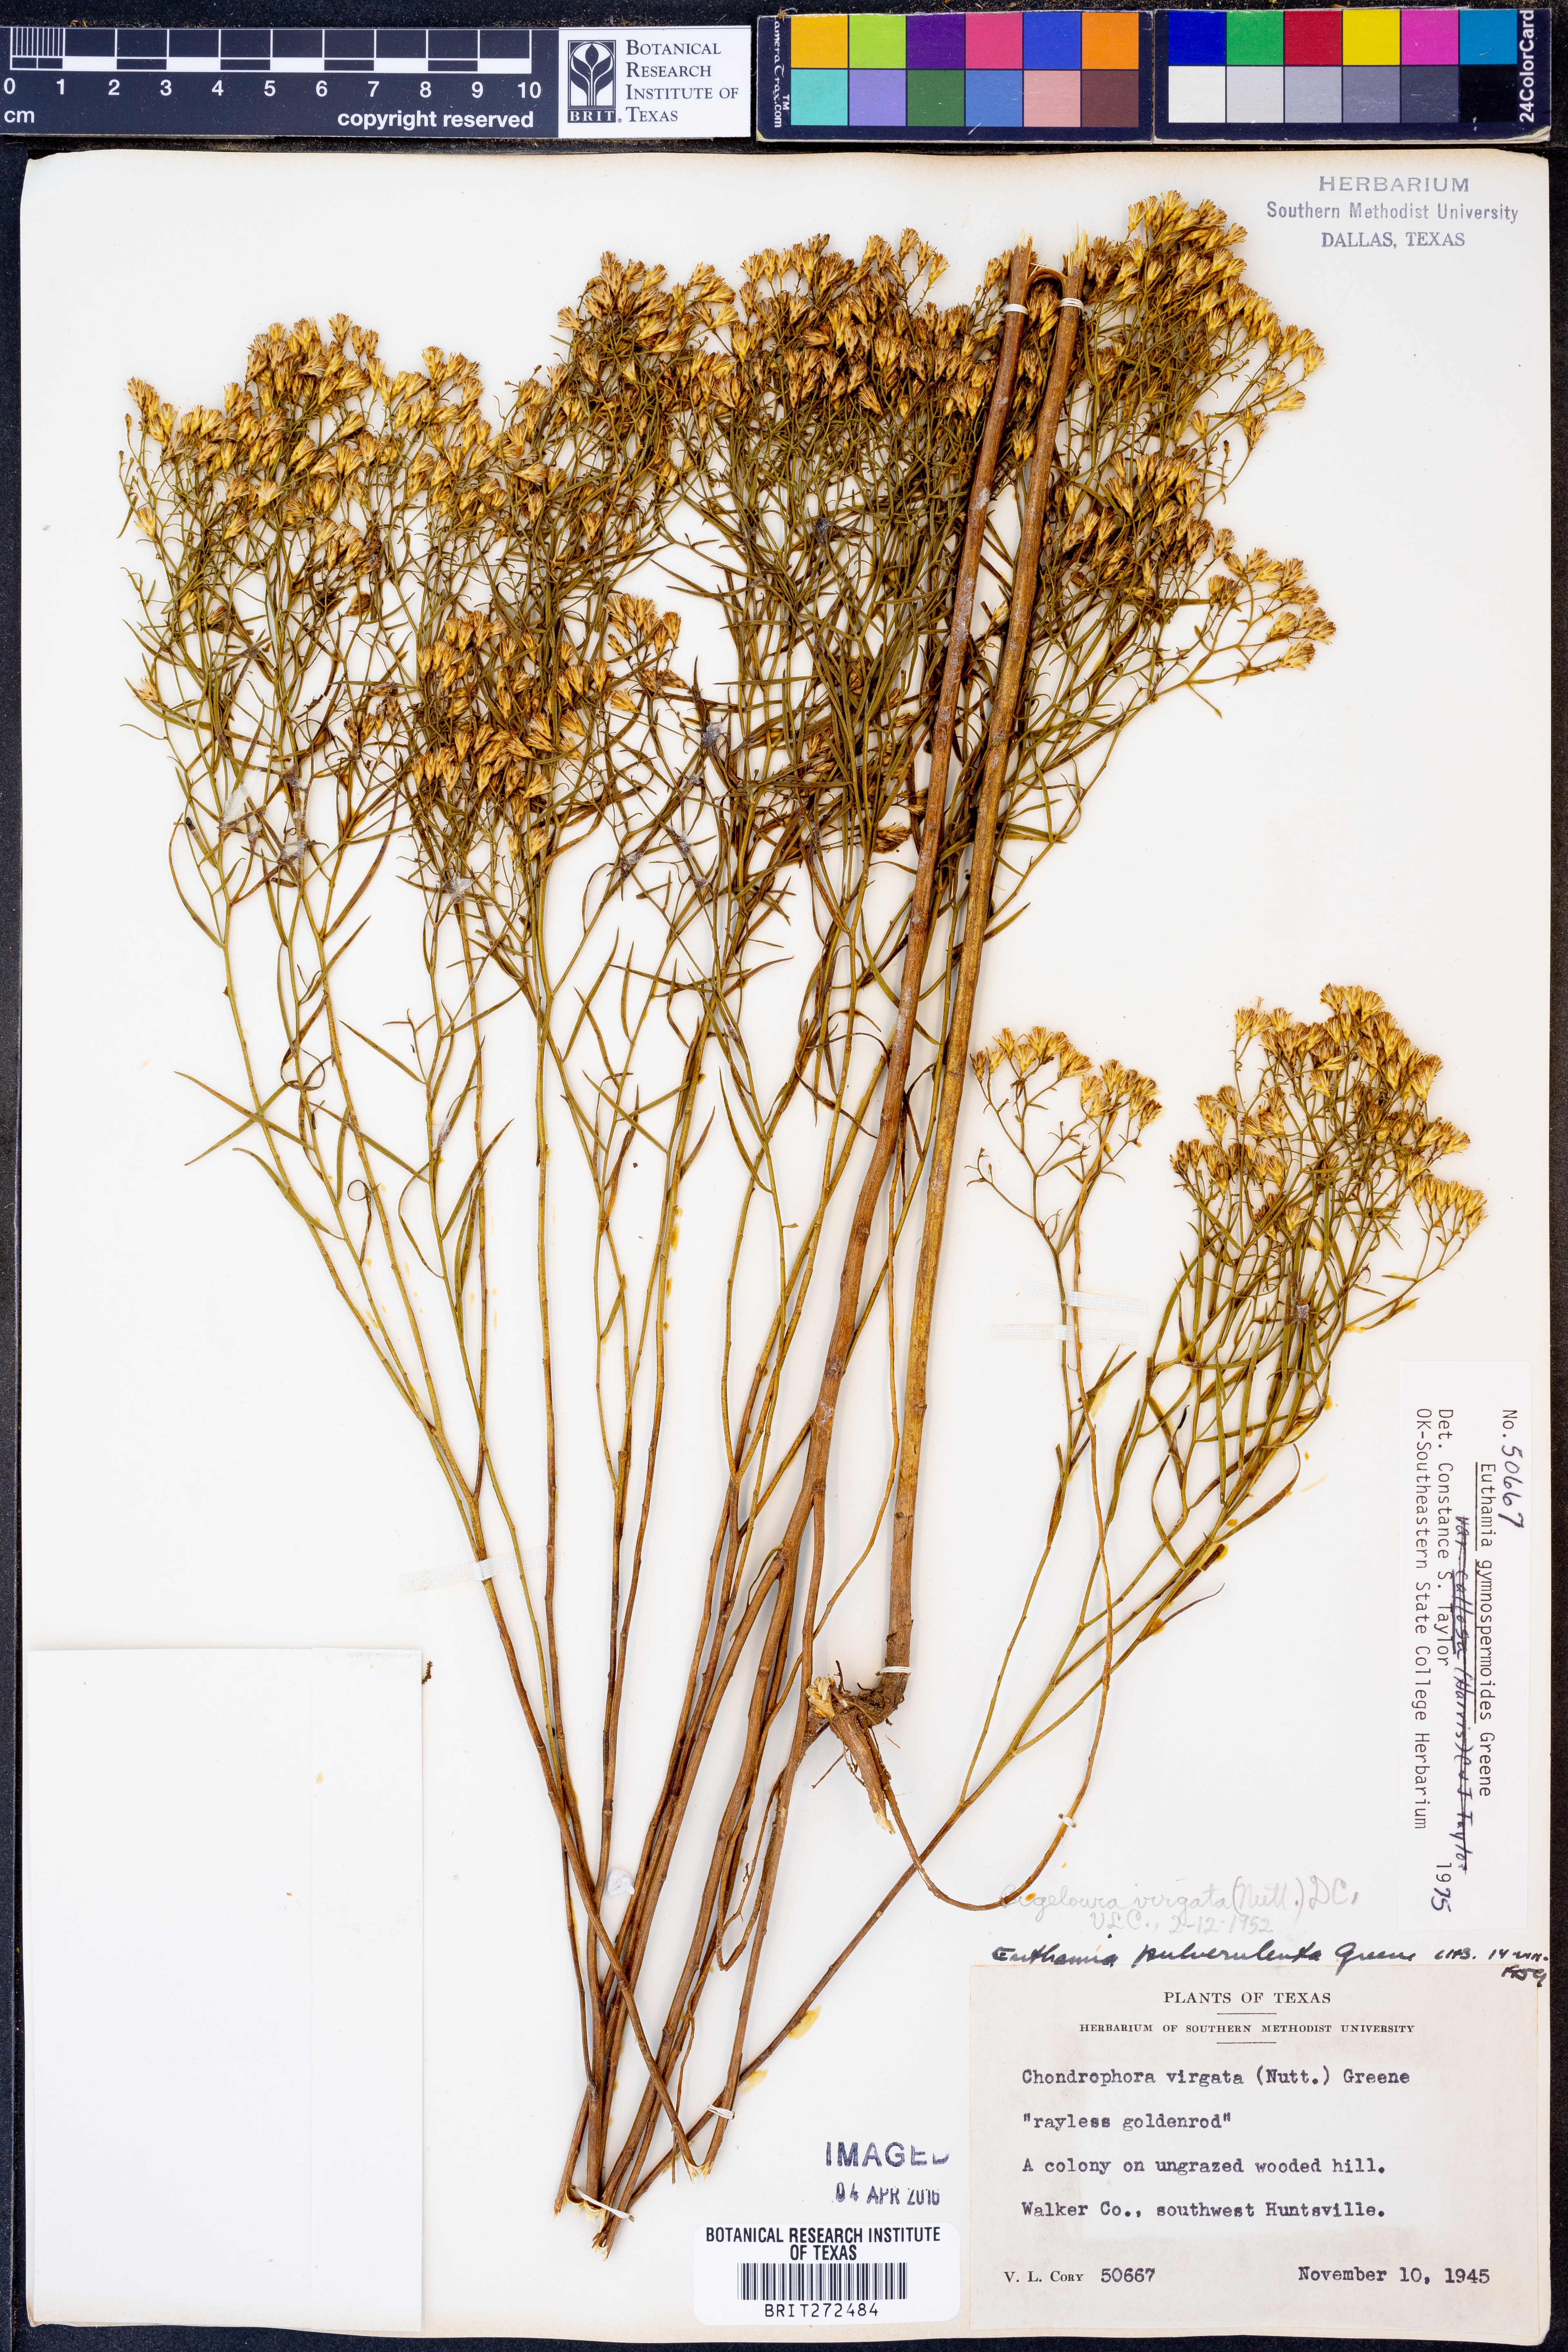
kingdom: Plantae
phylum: Tracheophyta
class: Magnoliopsida
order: Asterales
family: Asteraceae
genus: Euthamia
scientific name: Euthamia gymnospermoides
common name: Great plains goldentop
